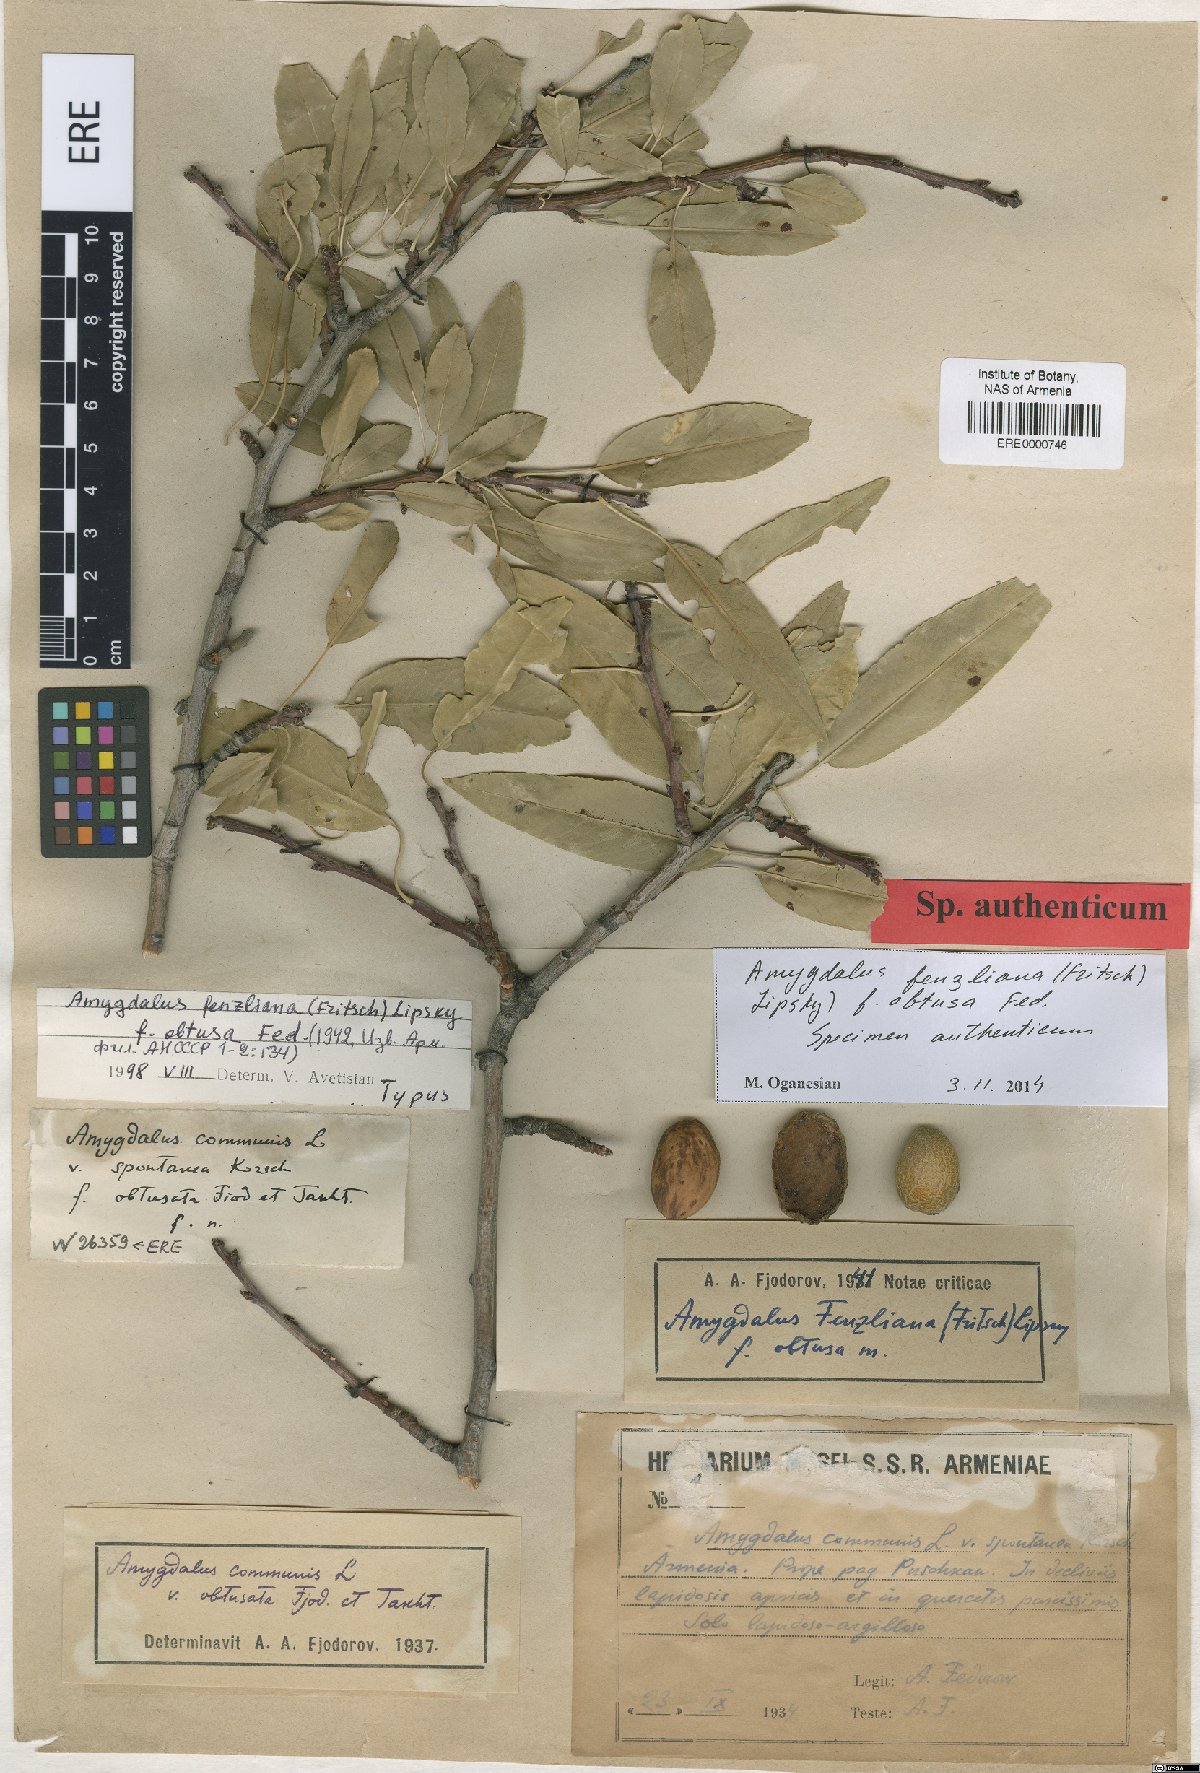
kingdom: Plantae
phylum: Tracheophyta
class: Magnoliopsida
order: Rosales
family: Rosaceae
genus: Prunus
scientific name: Prunus fenzliana
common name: Fenzls almond
